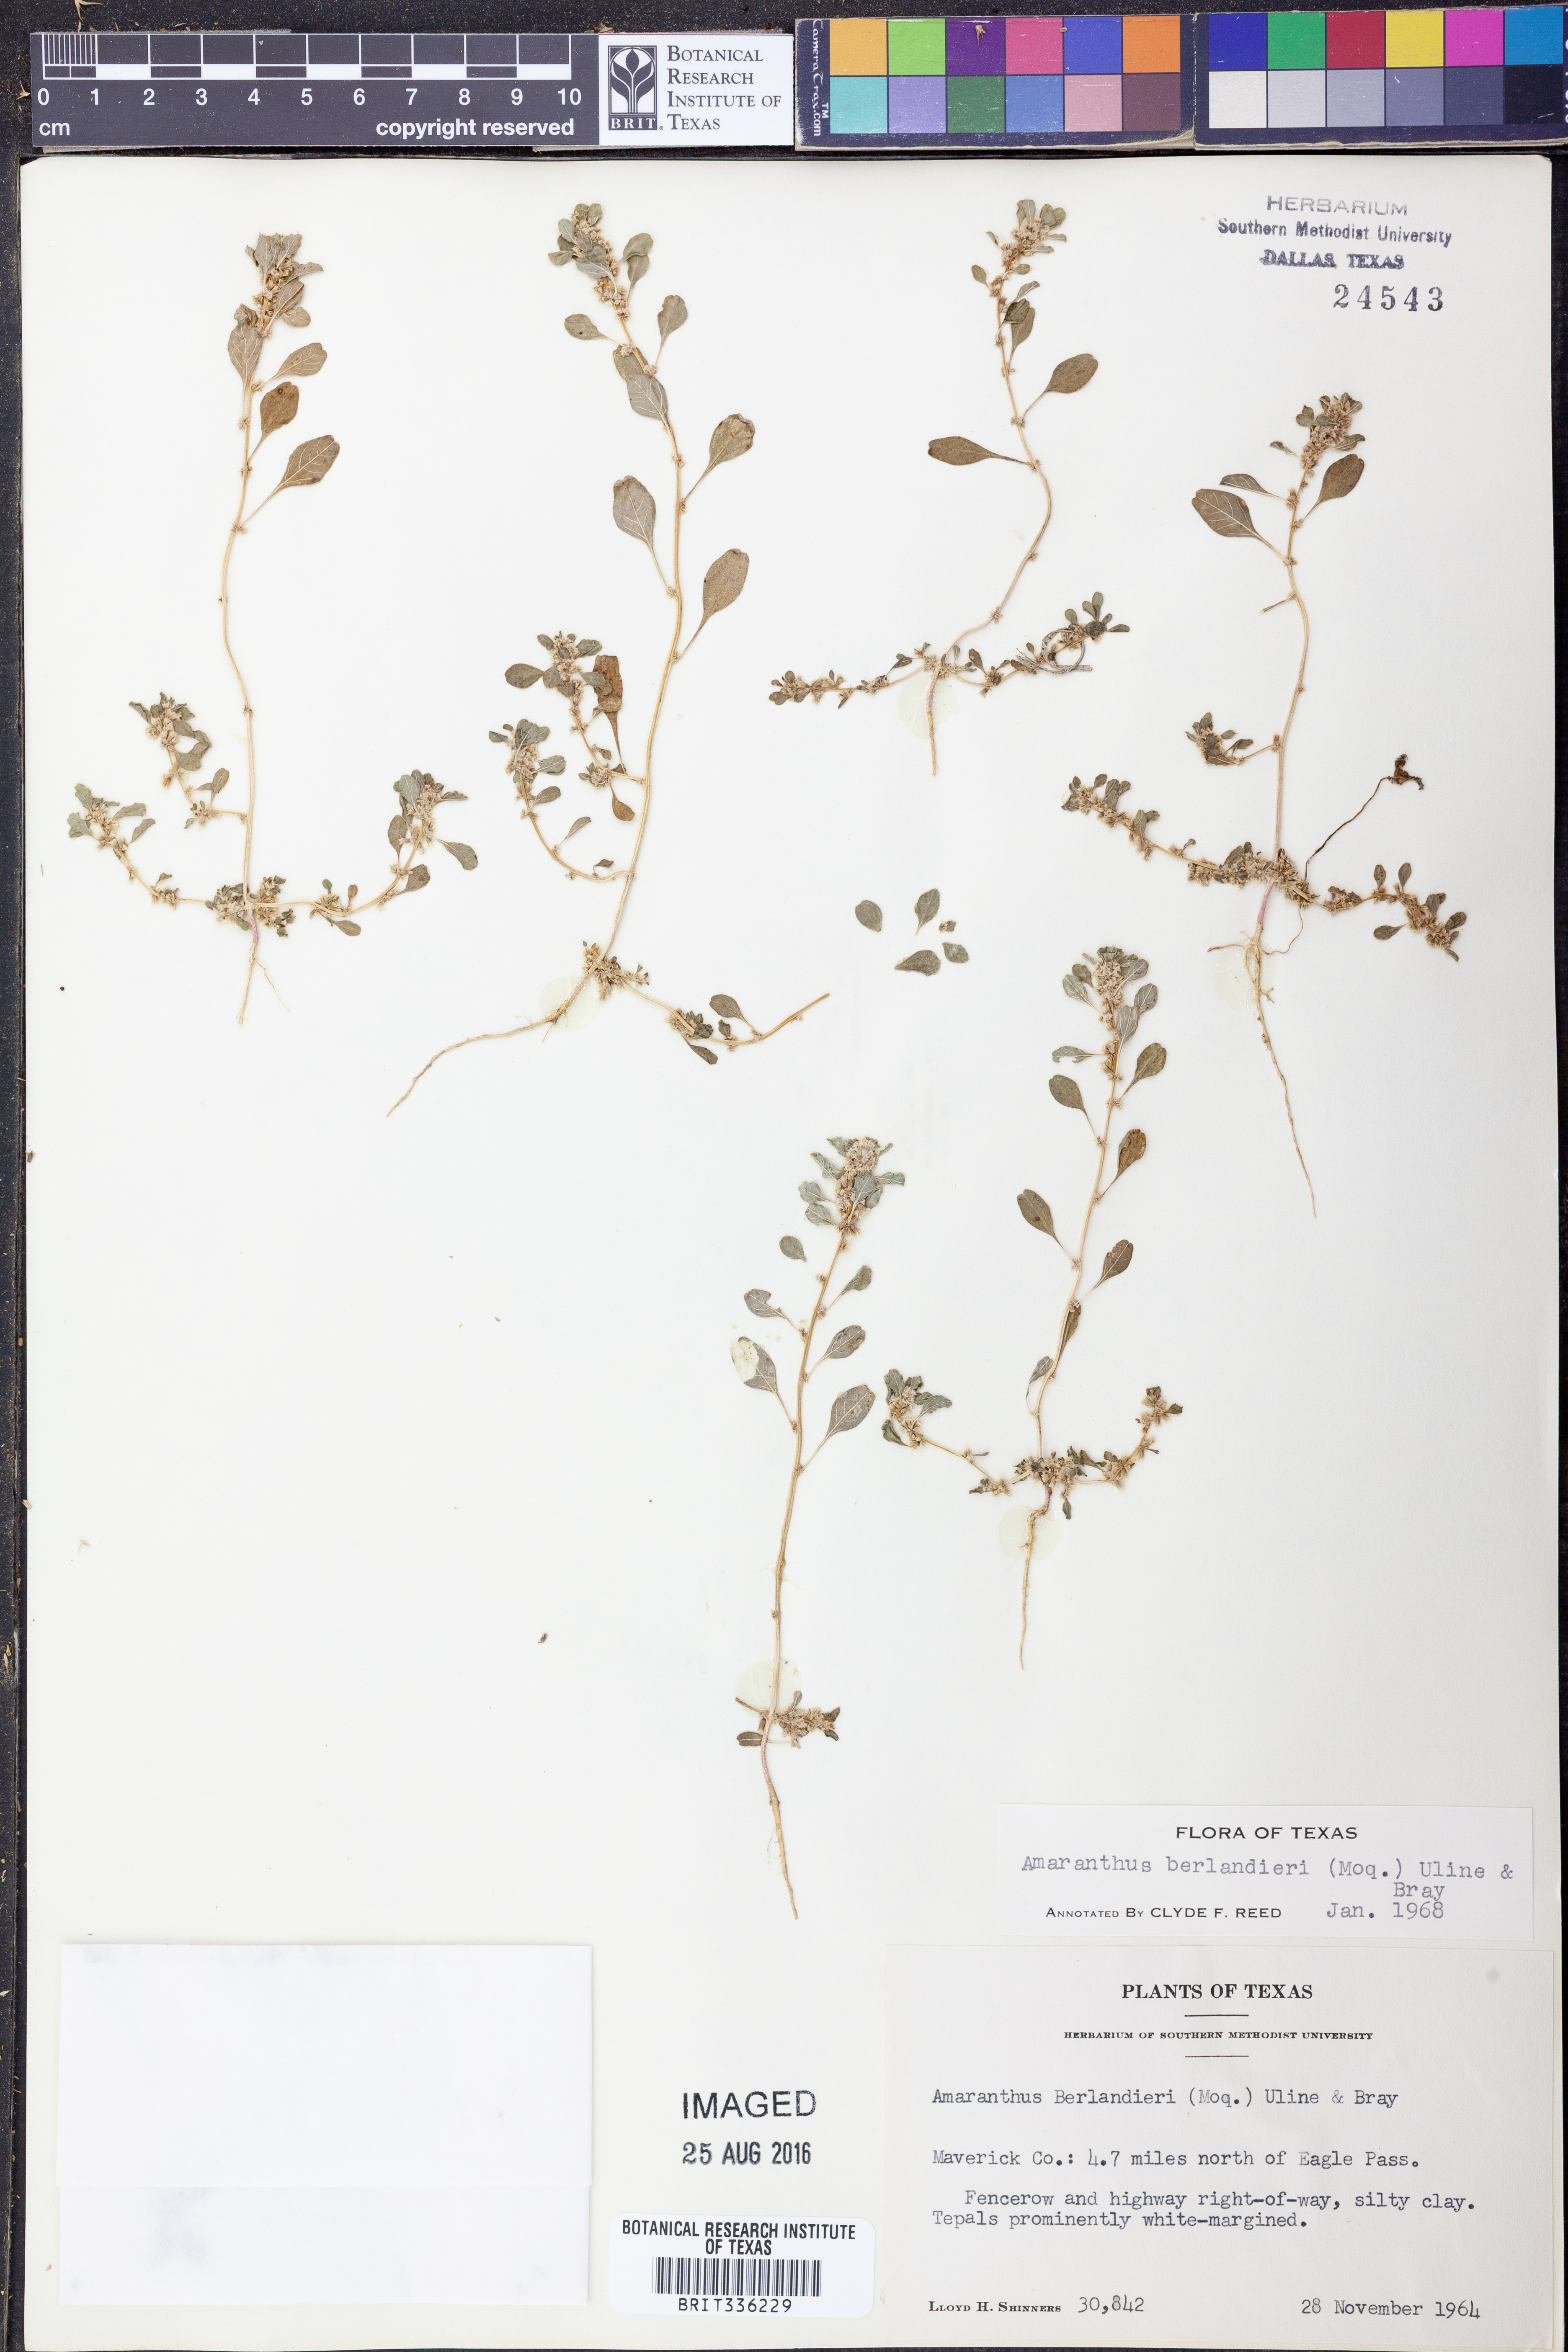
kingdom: Plantae
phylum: Tracheophyta
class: Magnoliopsida
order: Caryophyllales
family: Amaranthaceae
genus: Amaranthus
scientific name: Amaranthus polygonoides
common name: Tropical amaranth
